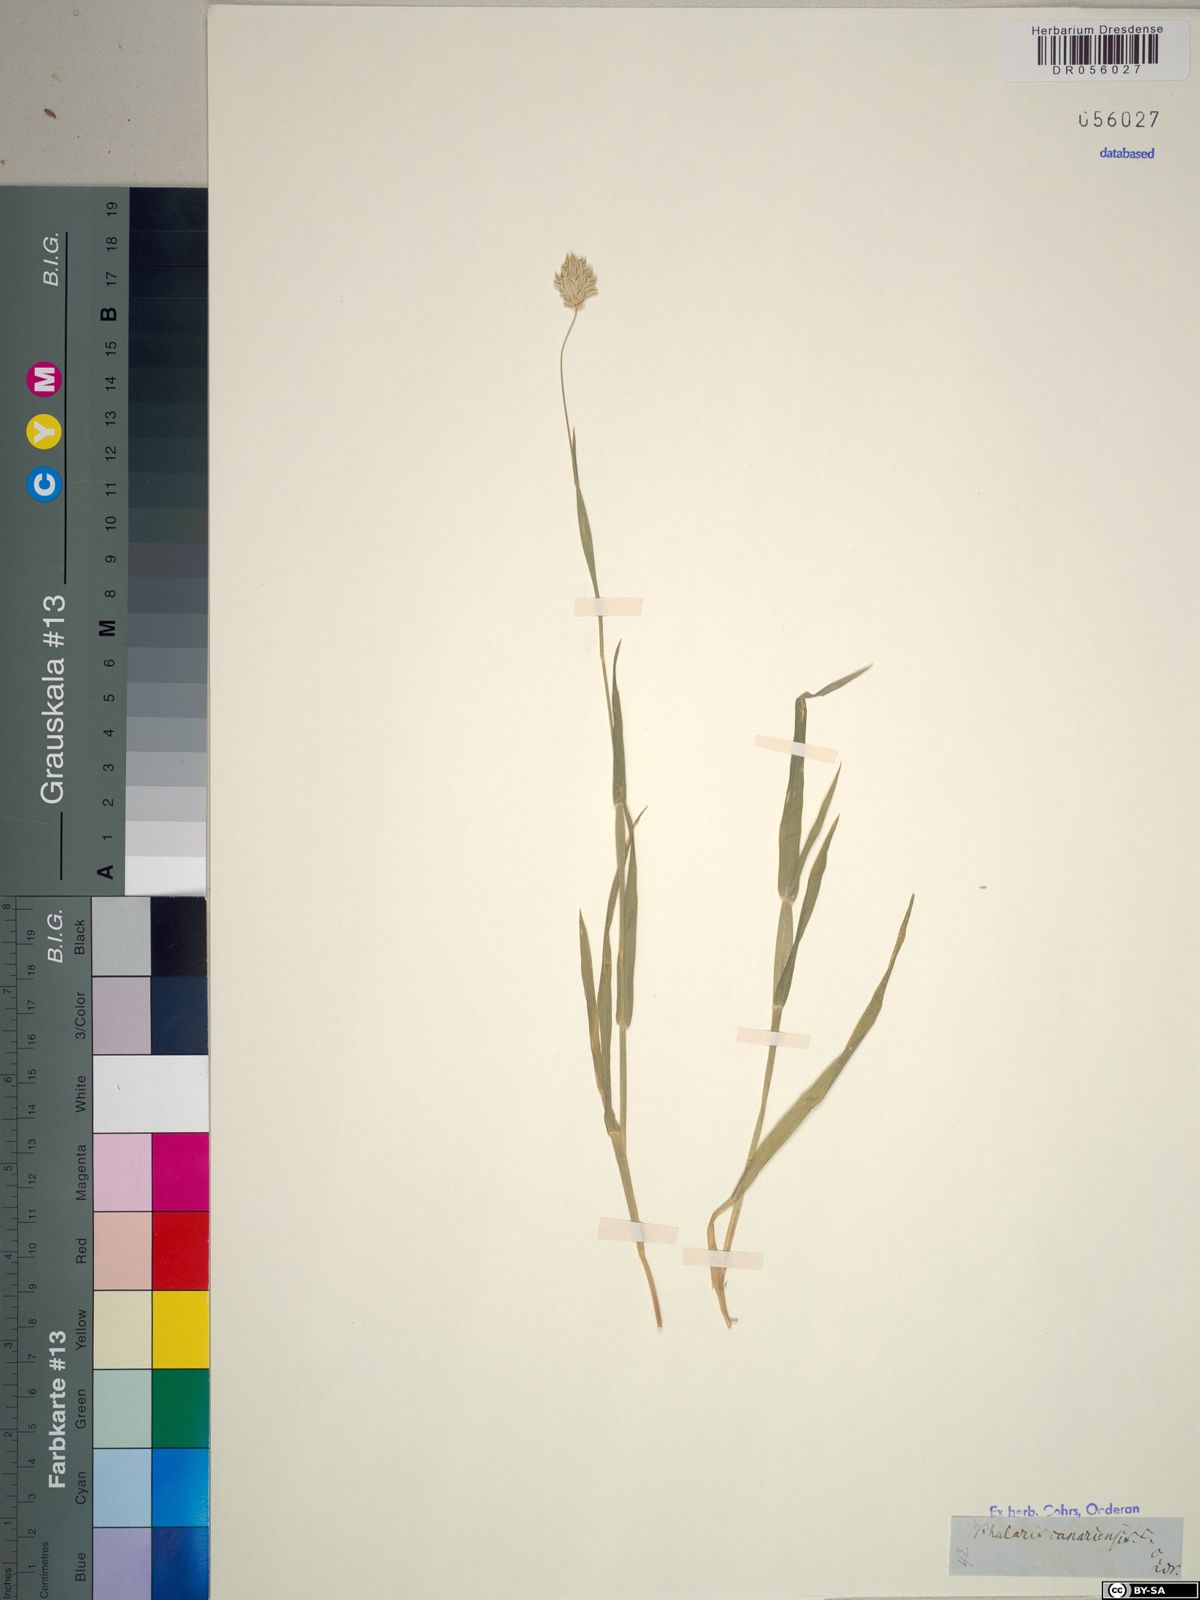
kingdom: Plantae
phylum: Tracheophyta
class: Liliopsida
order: Poales
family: Poaceae
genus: Phalaris
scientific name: Phalaris canariensis
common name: Annual canarygrass
